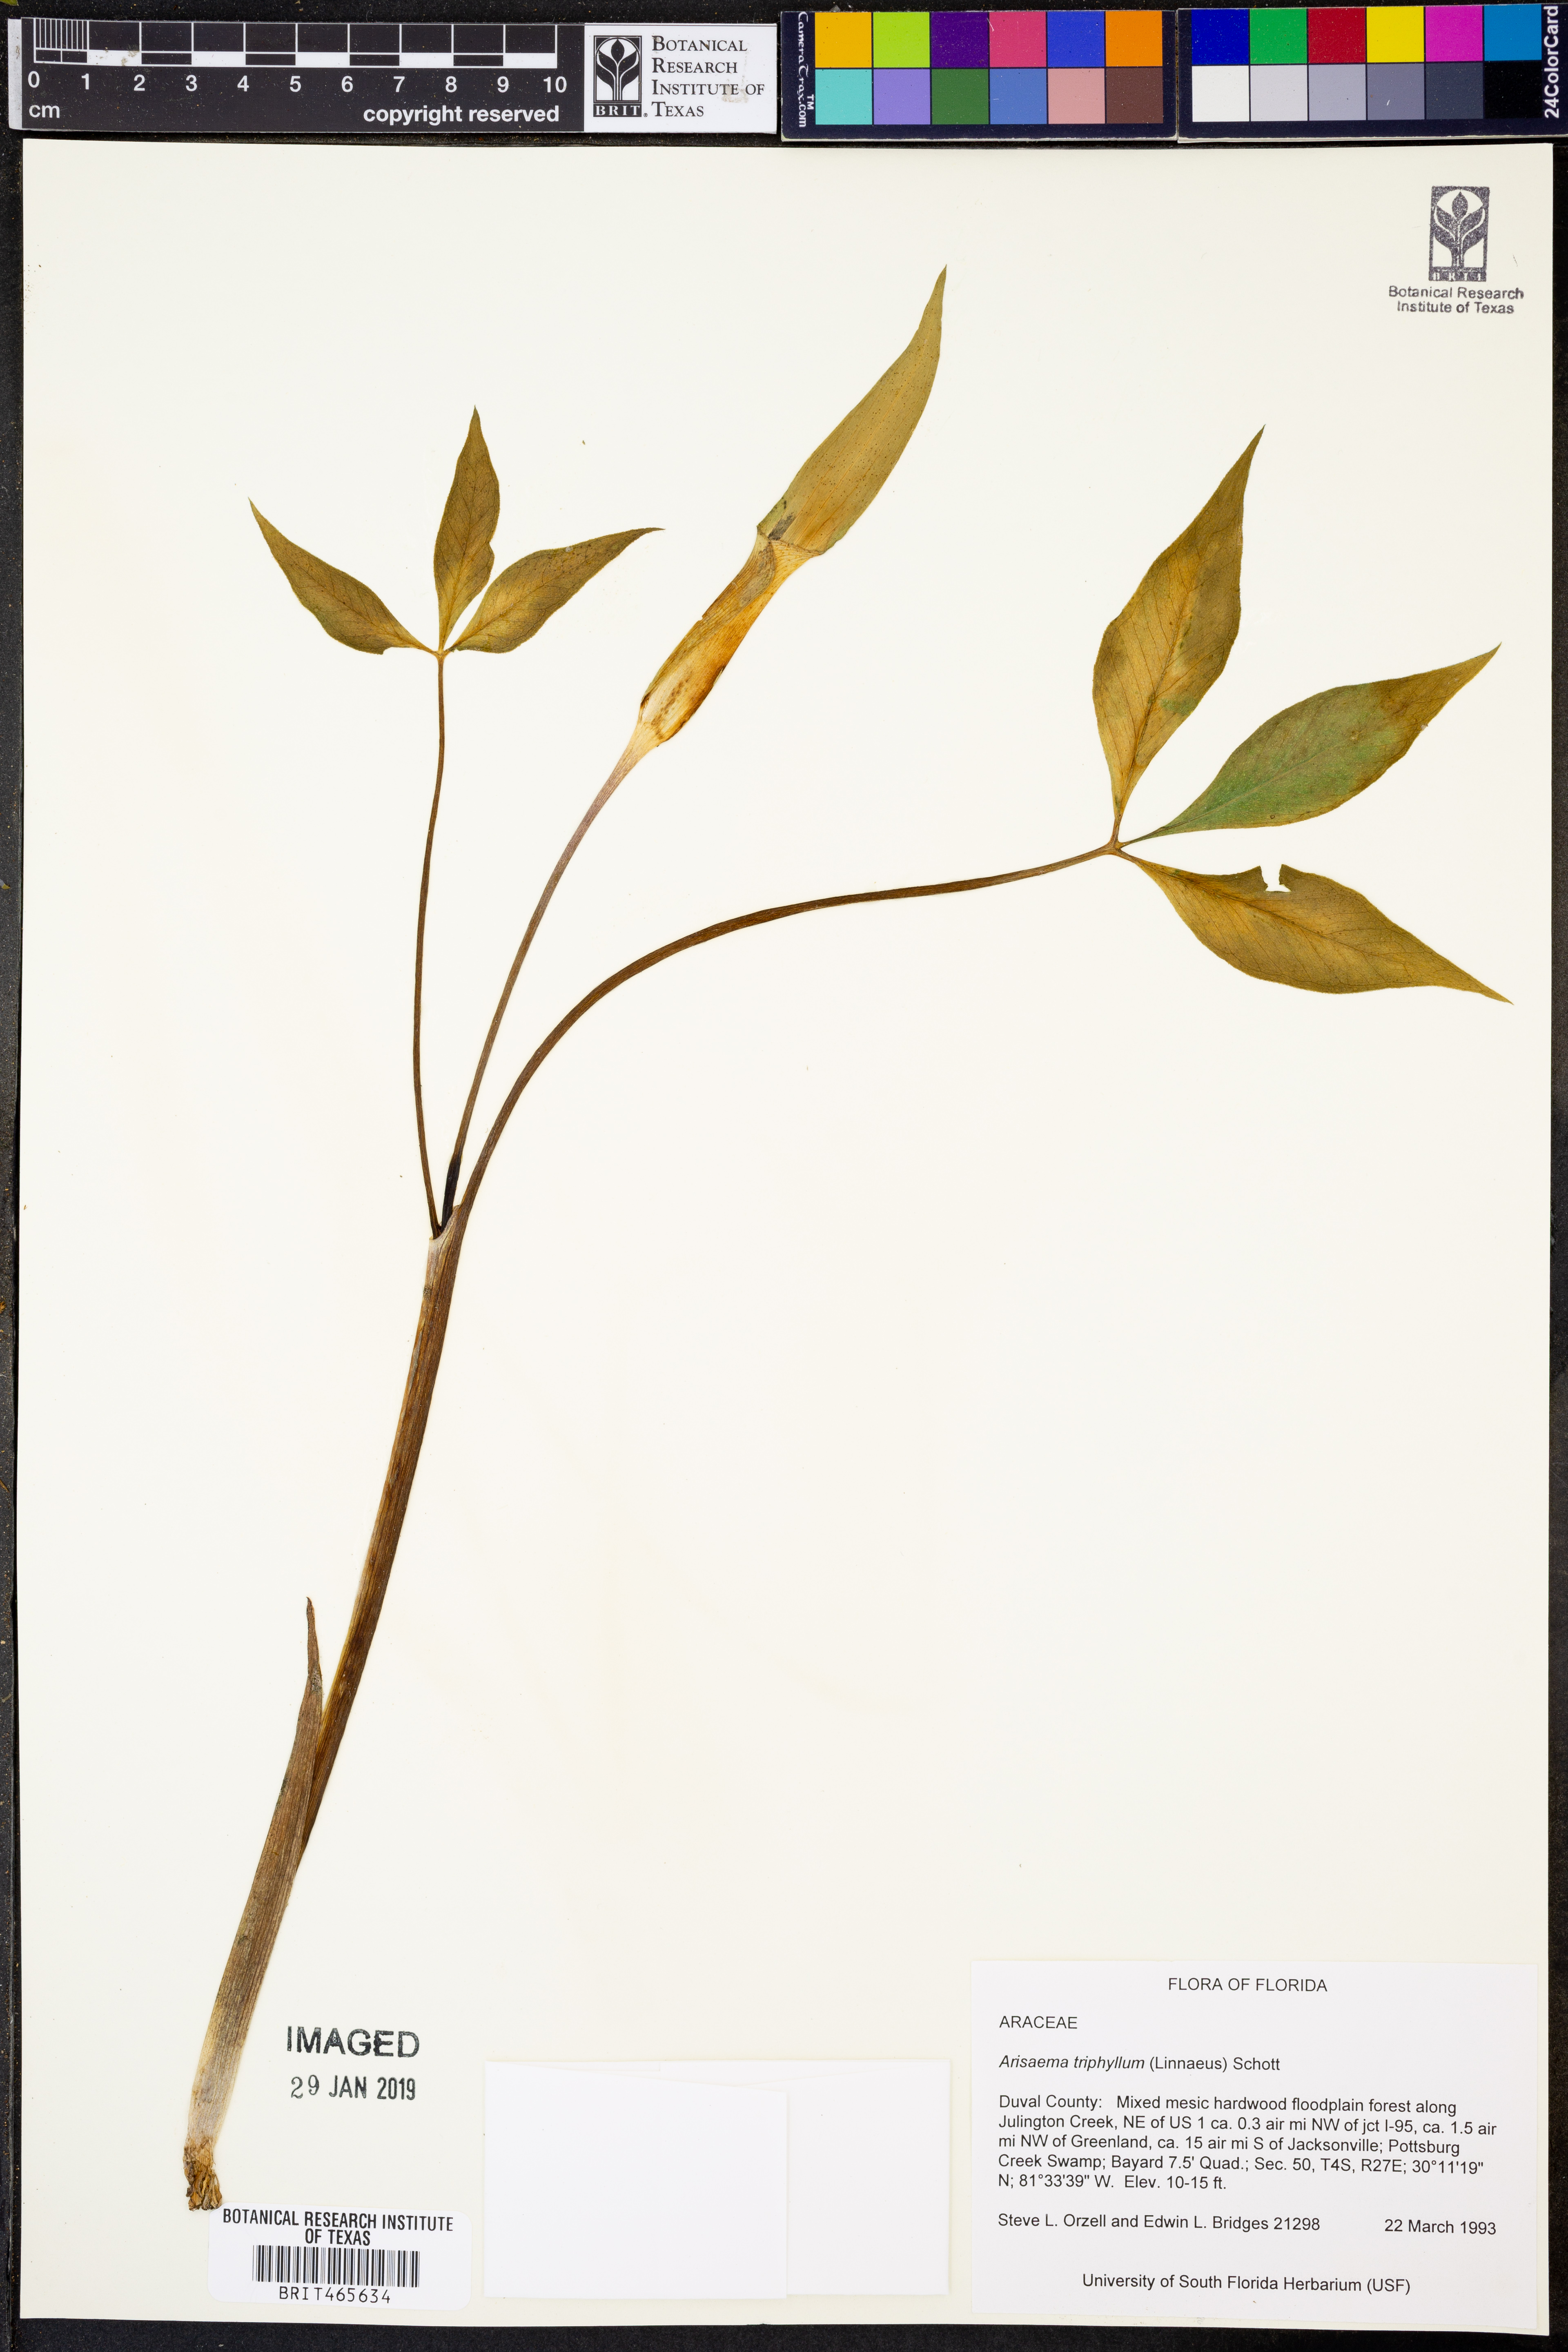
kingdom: Plantae
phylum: Tracheophyta
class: Liliopsida
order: Alismatales
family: Araceae
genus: Arisaema
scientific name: Arisaema triphyllum
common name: Jack-in-the-pulpit
